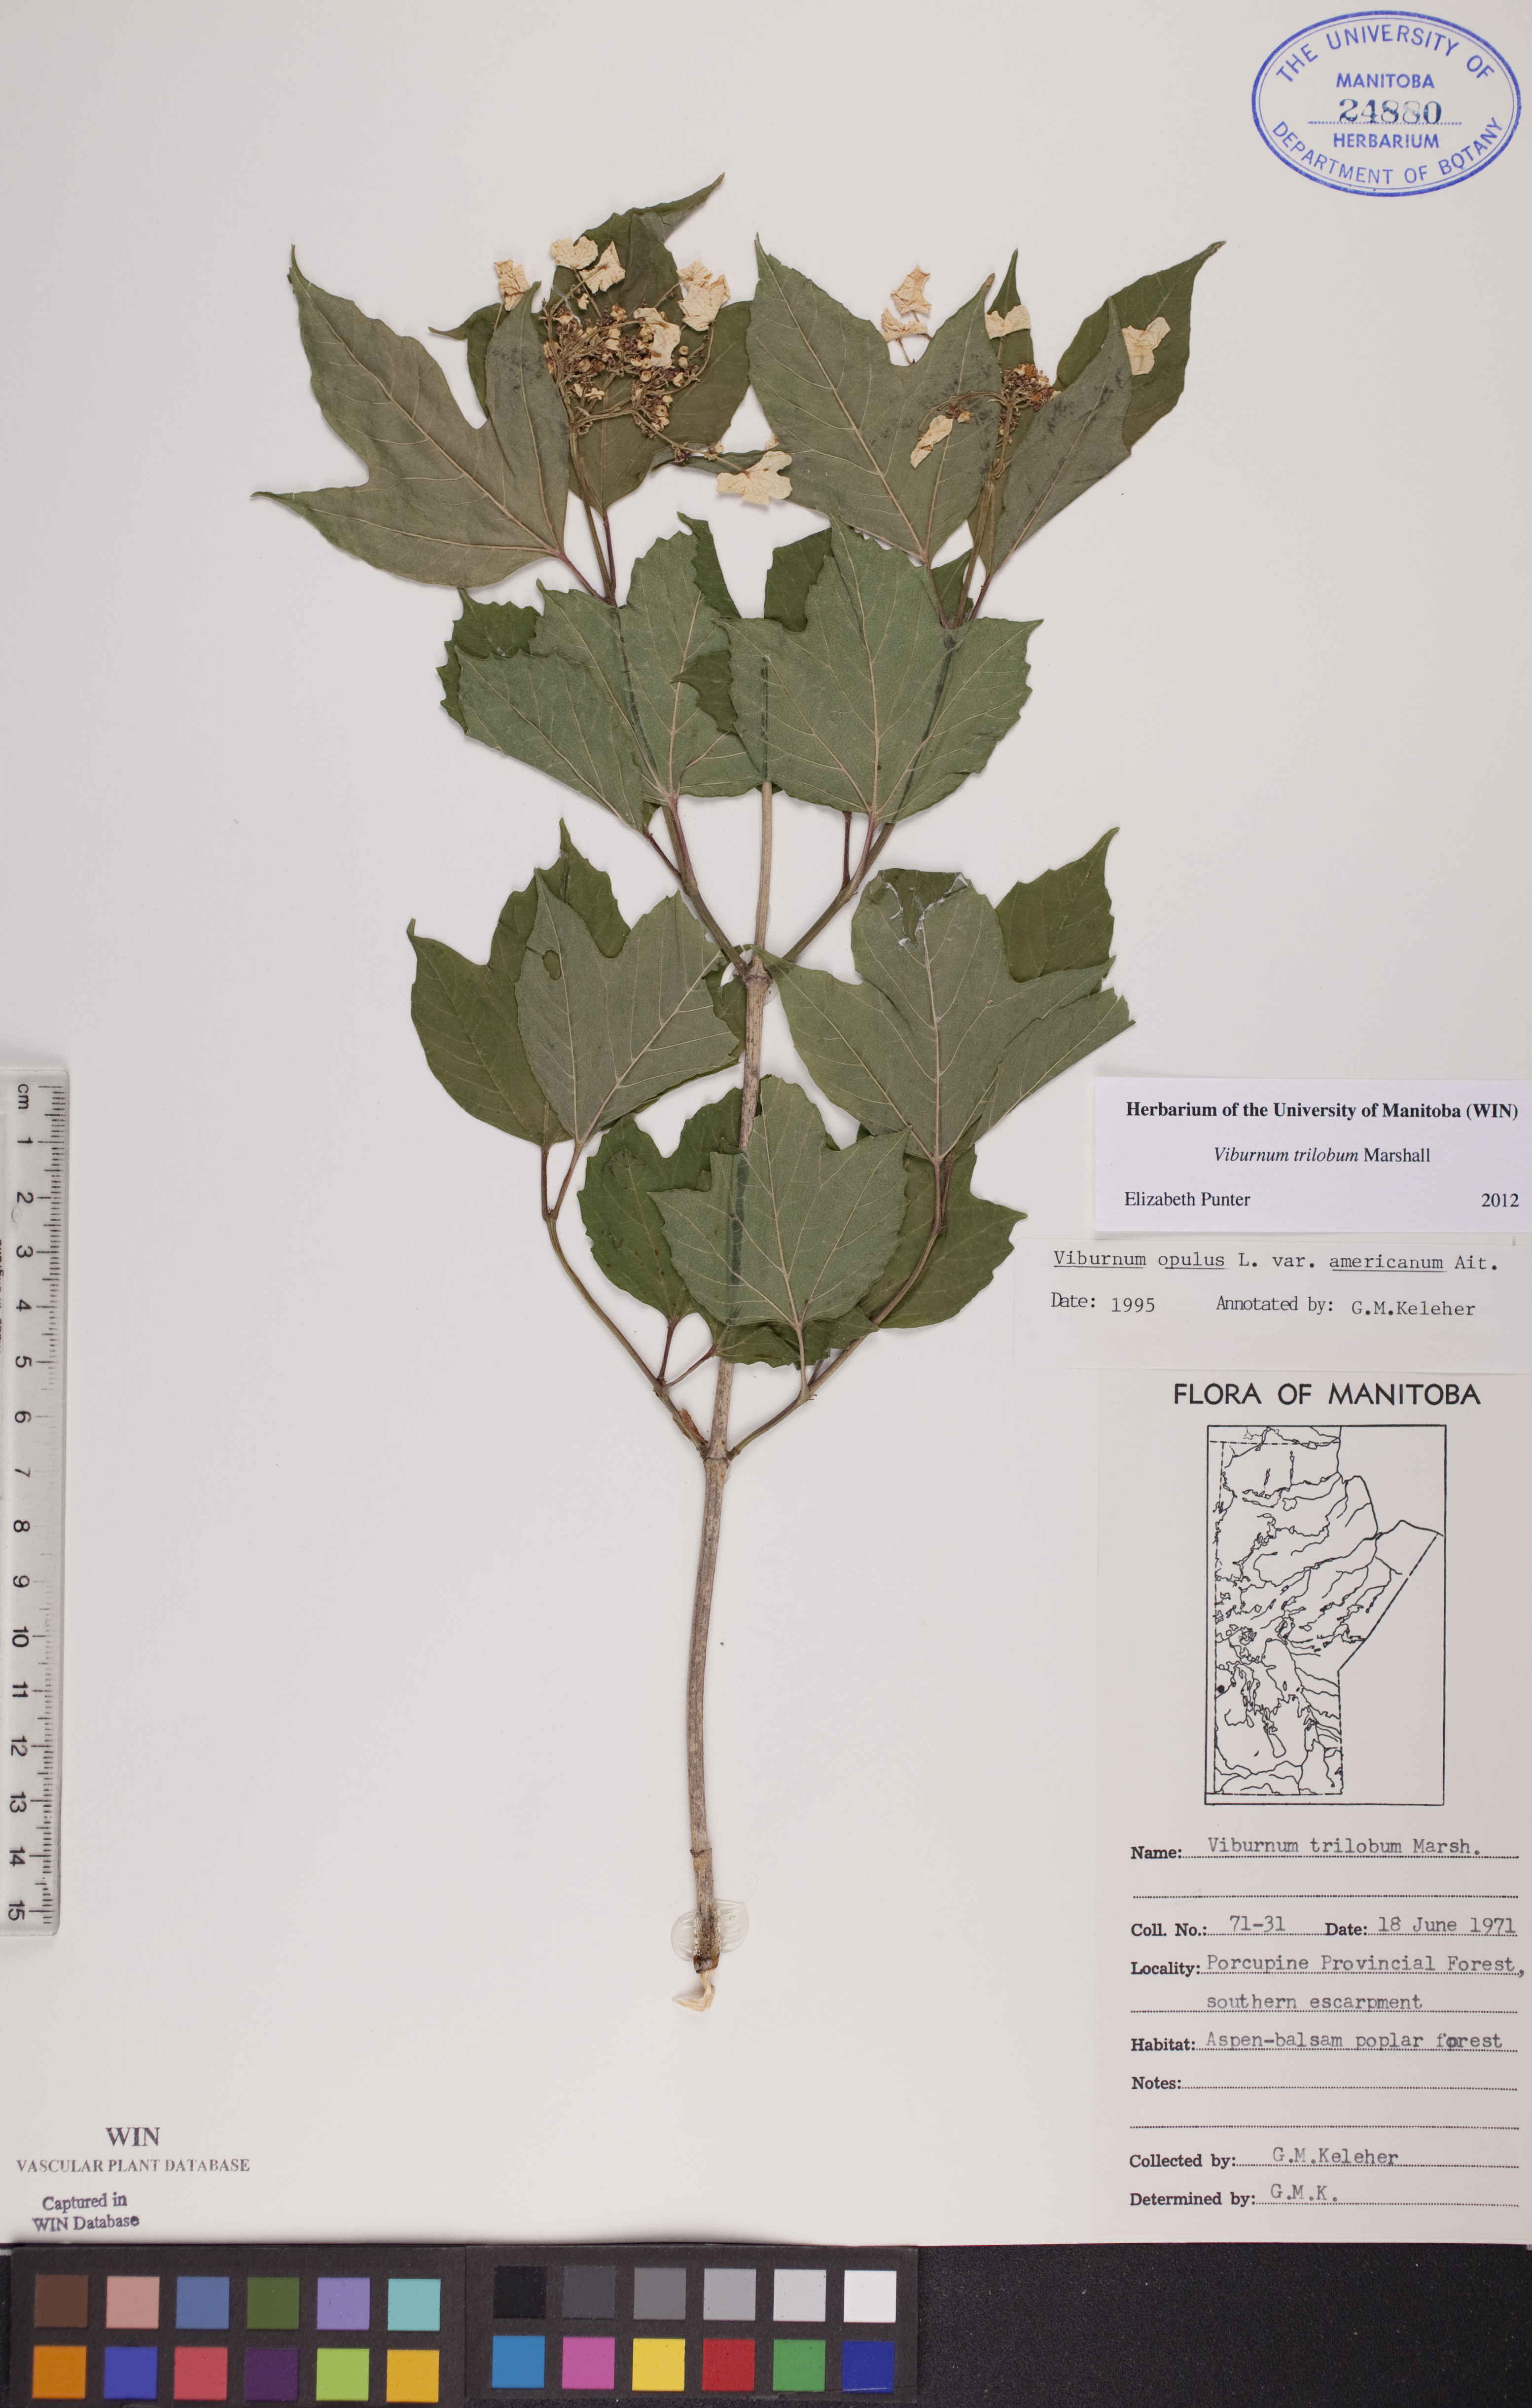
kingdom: Plantae
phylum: Tracheophyta
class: Magnoliopsida
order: Dipsacales
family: Viburnaceae
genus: Viburnum
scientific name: Viburnum trilobum
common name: American cranberrybush
